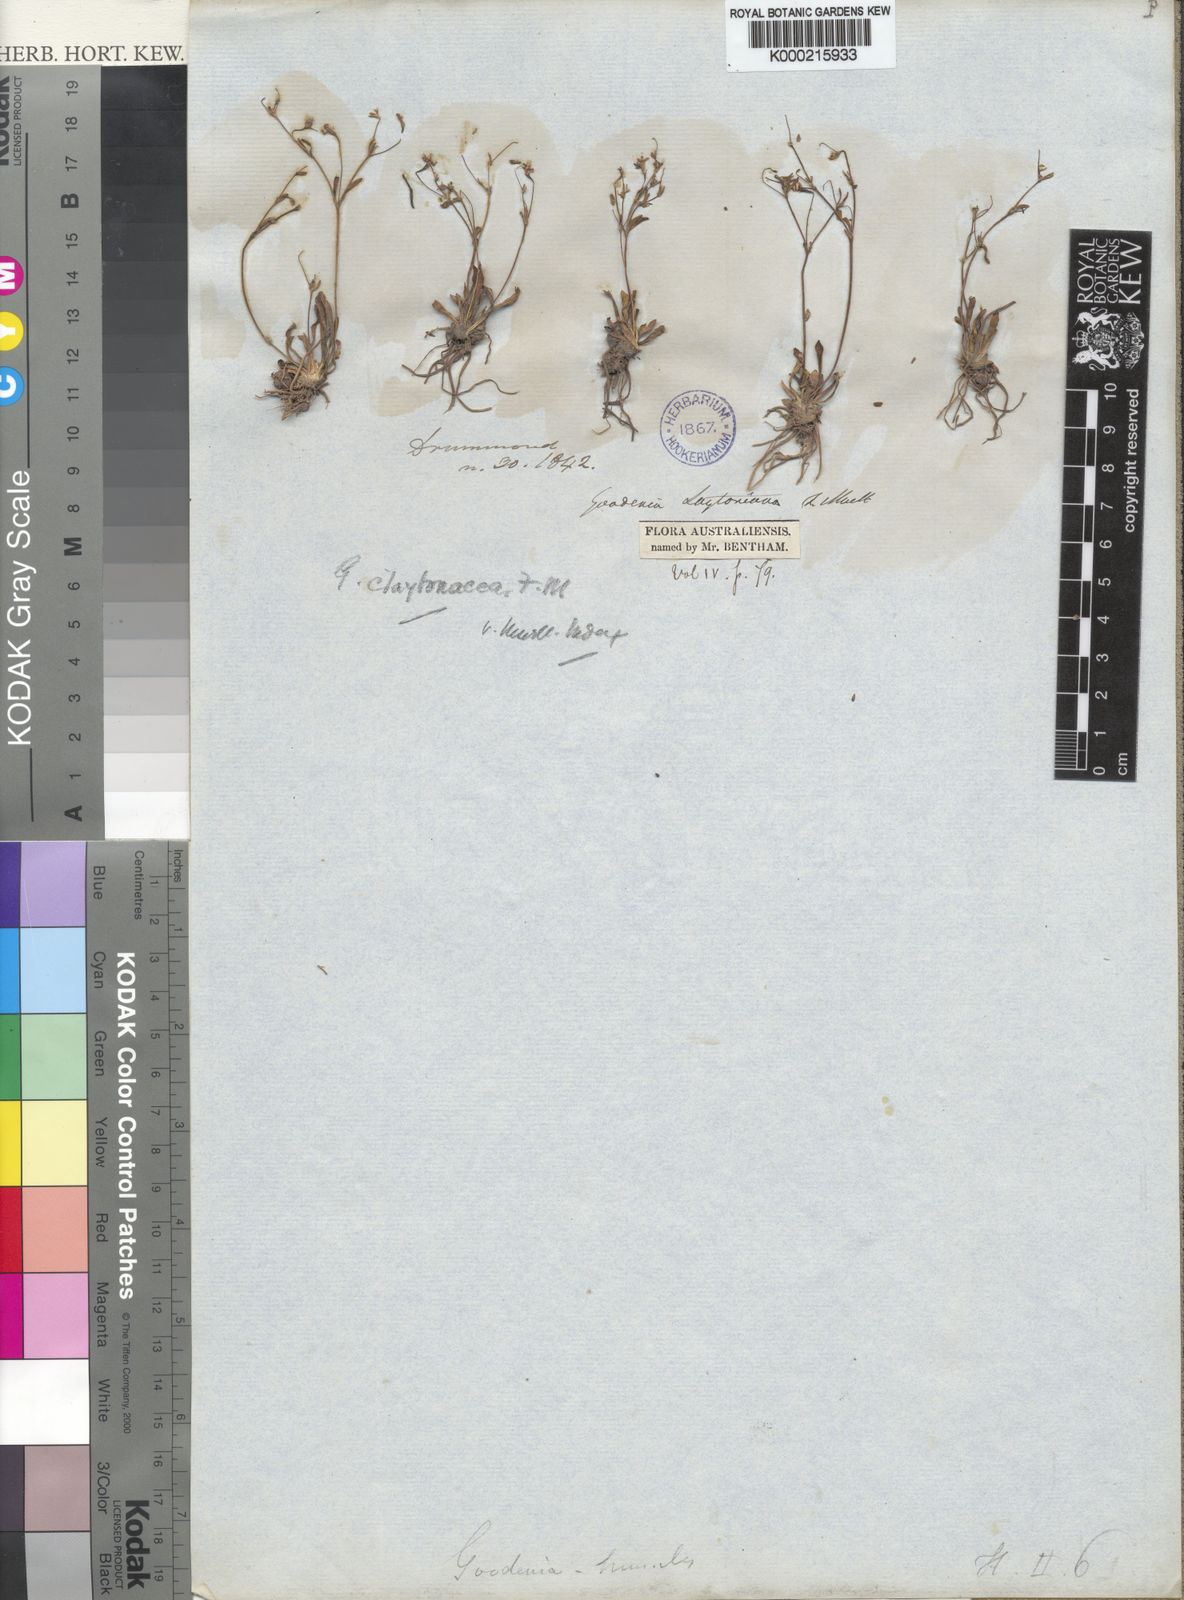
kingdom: Plantae
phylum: Tracheophyta
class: Magnoliopsida
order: Asterales
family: Goodeniaceae
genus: Goodenia
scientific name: Goodenia
